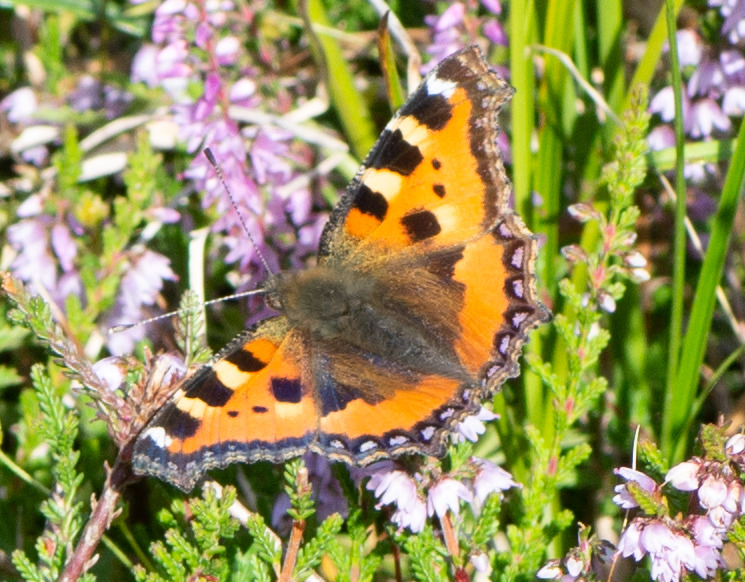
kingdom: Animalia
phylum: Arthropoda
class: Insecta
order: Lepidoptera
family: Nymphalidae
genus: Aglais
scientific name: Aglais urticae
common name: Nældens takvinge
